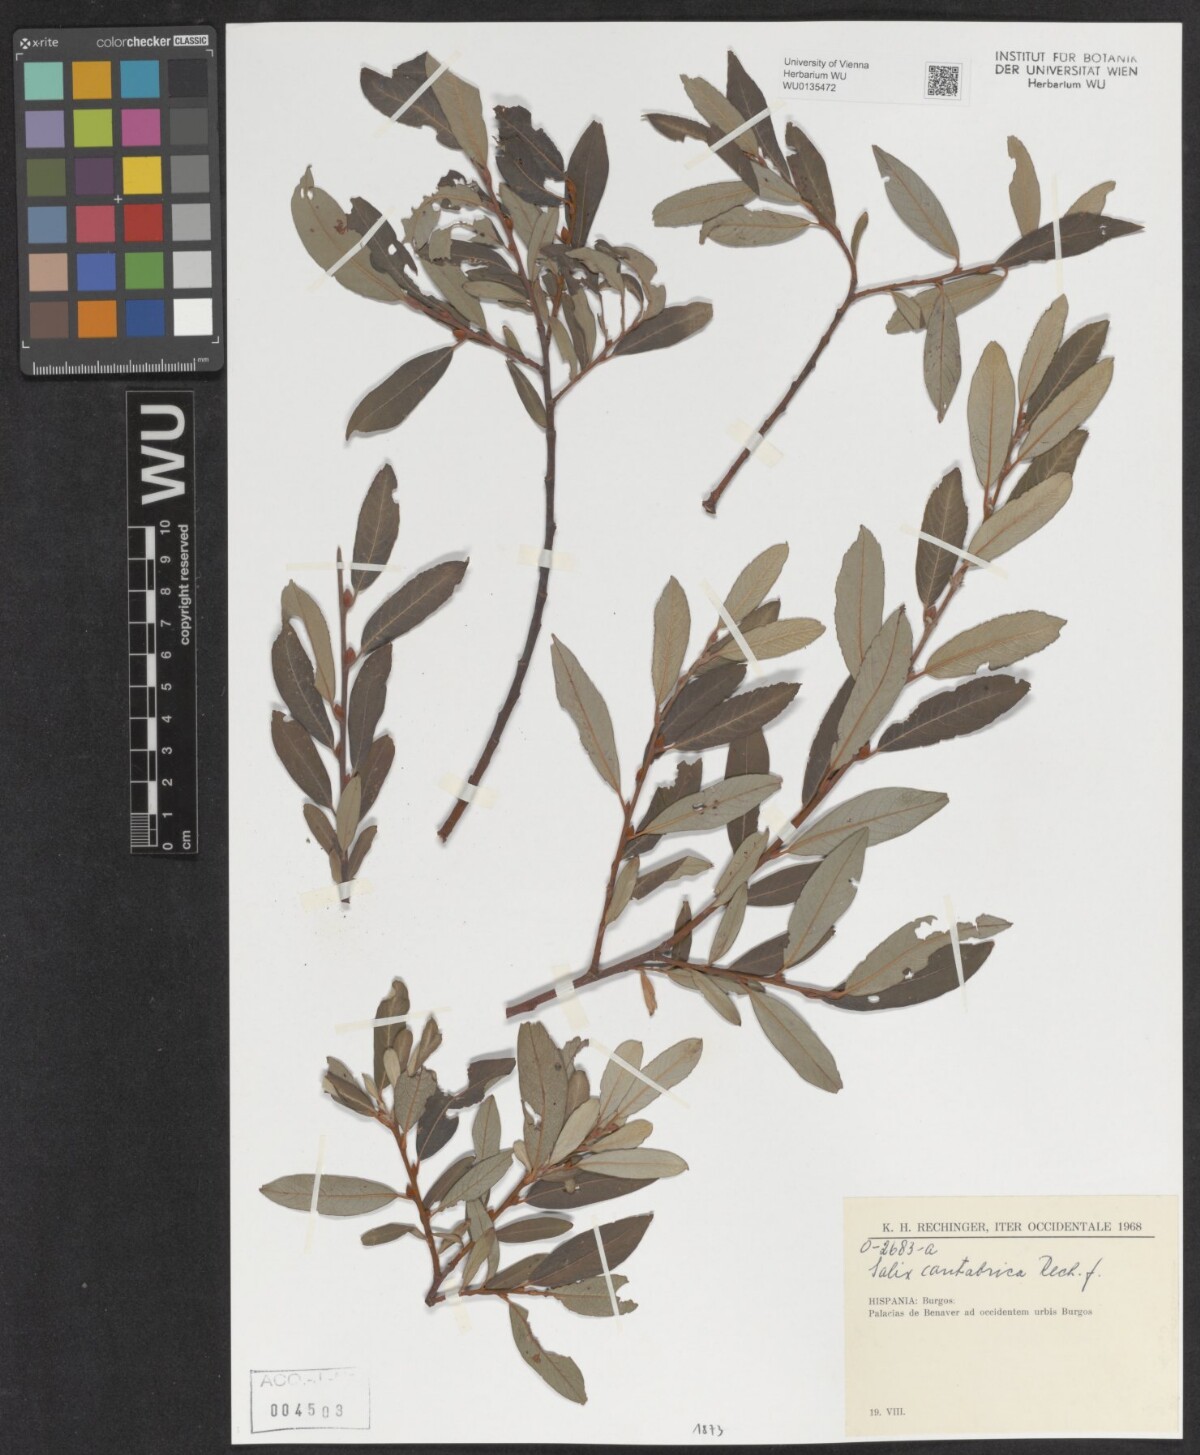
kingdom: Plantae
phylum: Tracheophyta
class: Magnoliopsida
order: Malpighiales
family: Salicaceae
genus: Salix
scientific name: Salix cantabrica
